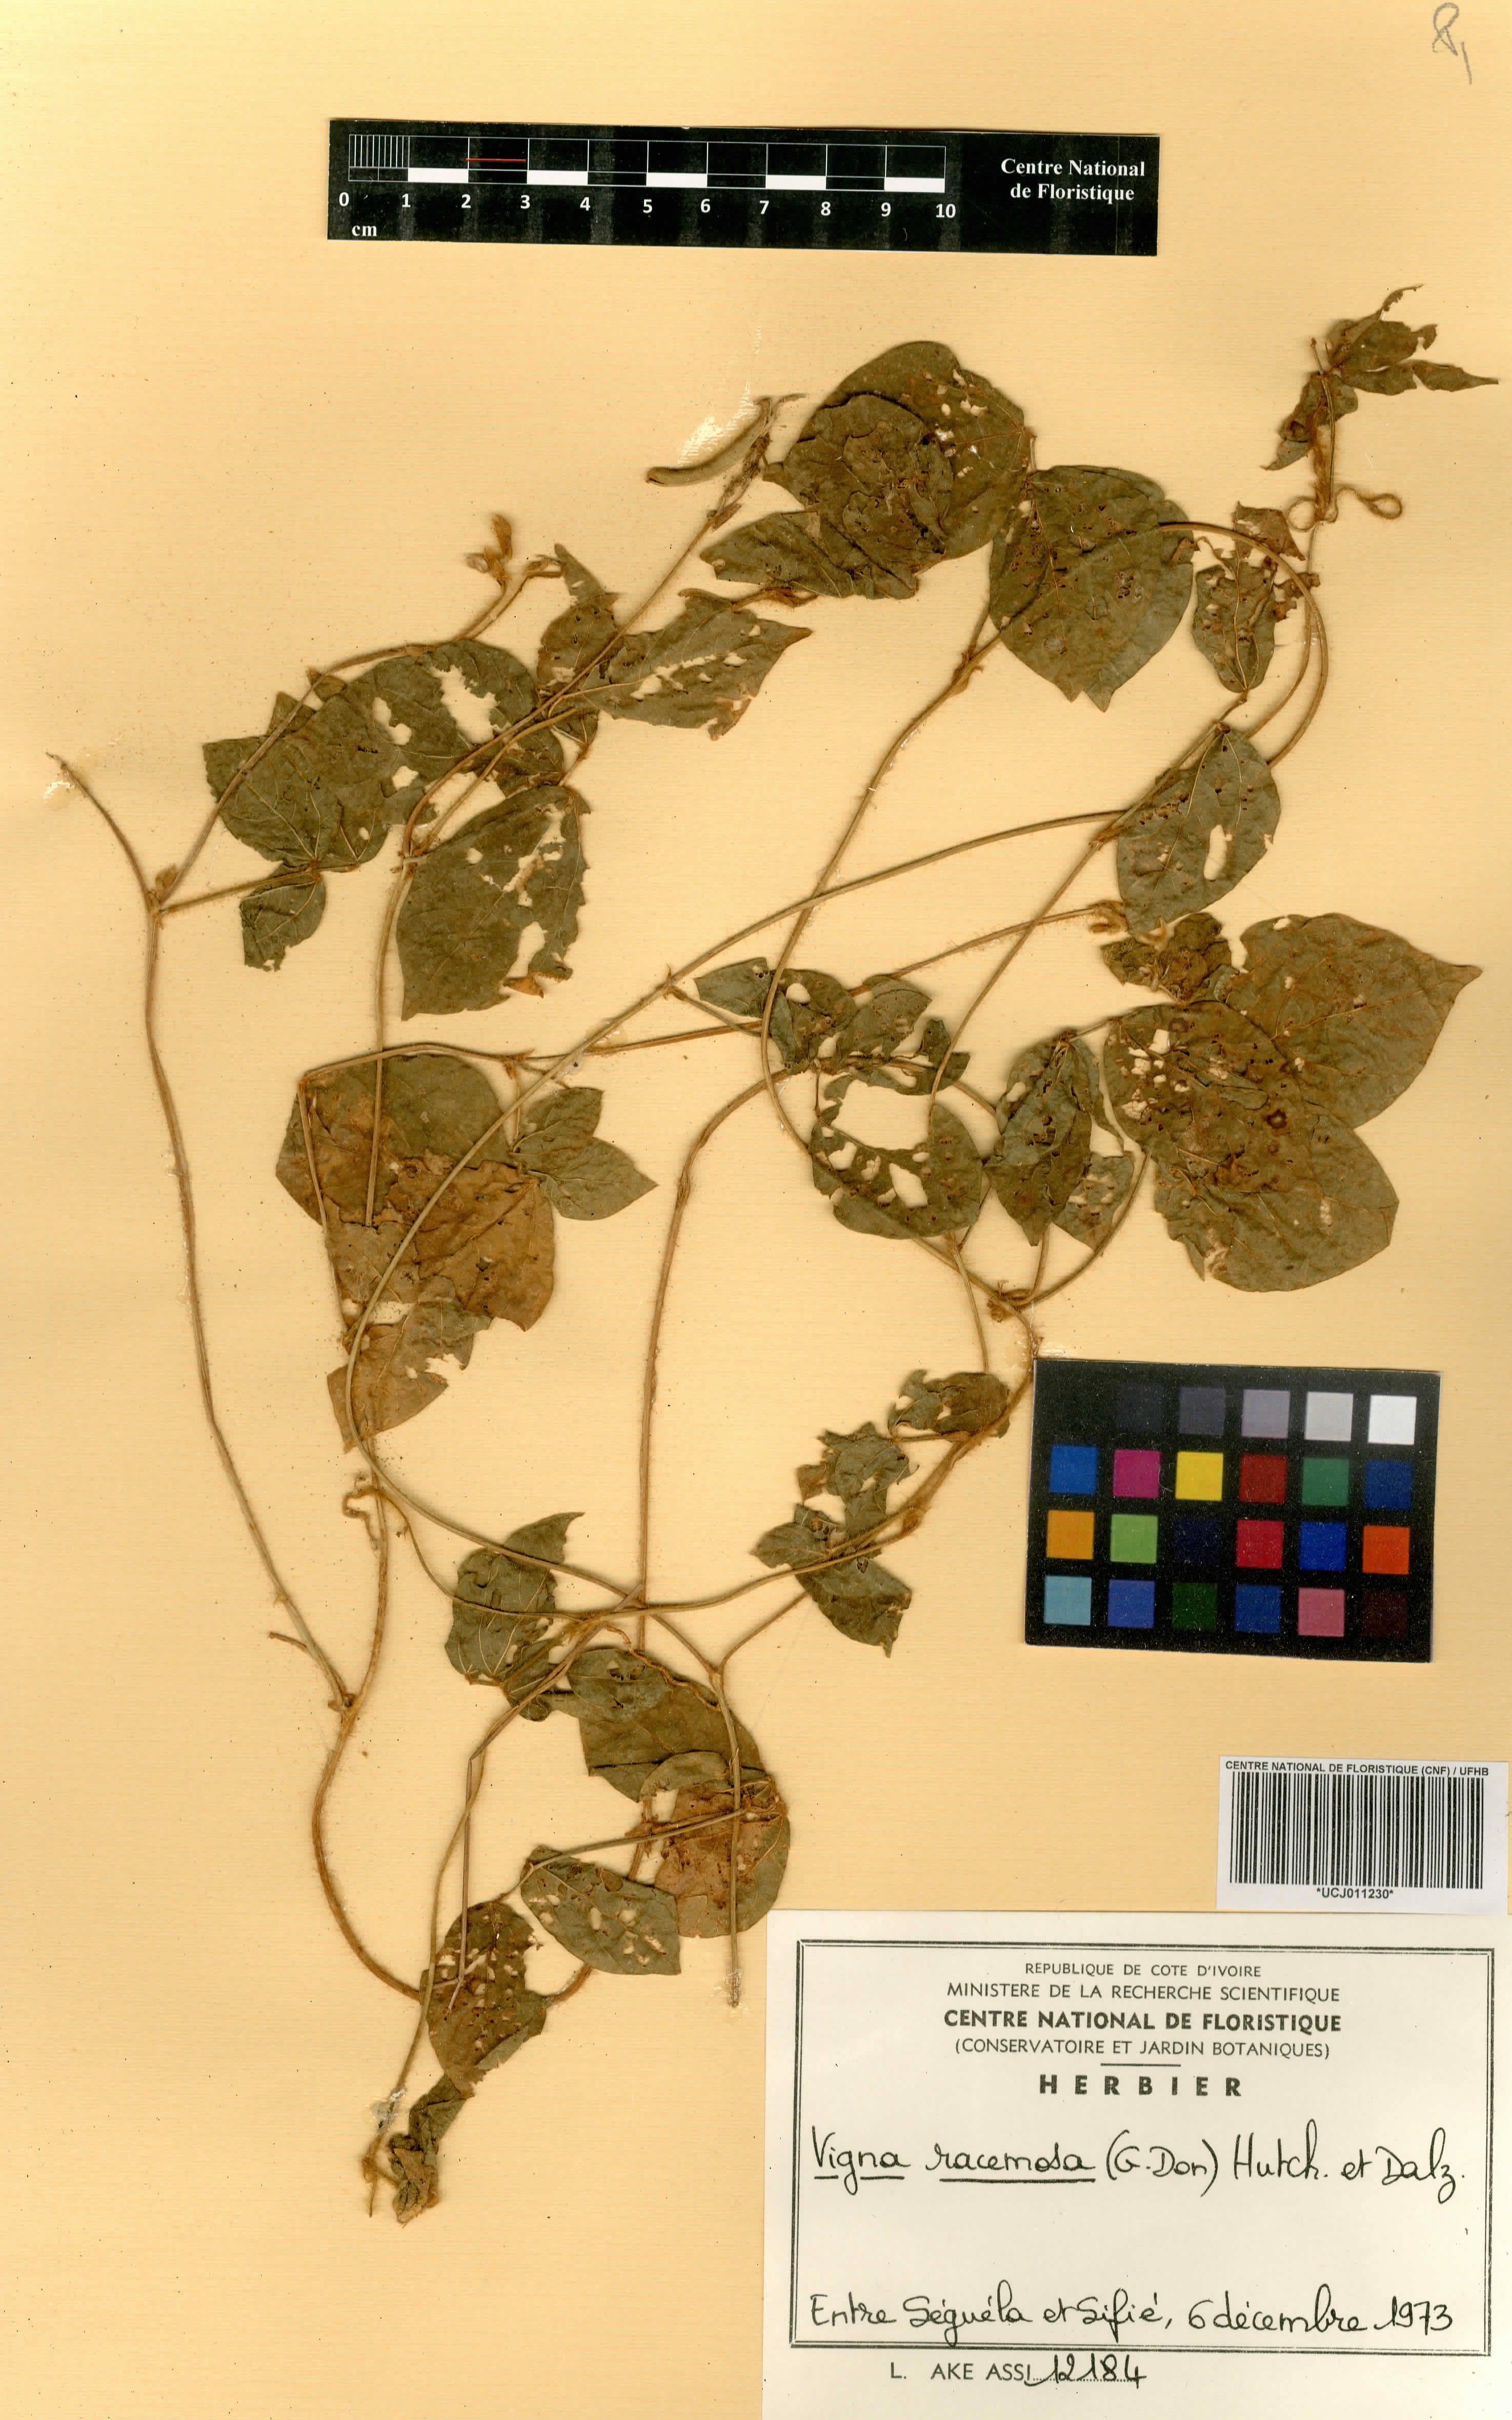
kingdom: Plantae
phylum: Tracheophyta
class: Magnoliopsida
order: Fabales
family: Fabaceae
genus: Vigna
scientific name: Vigna racemosa
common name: Beans not eaten
